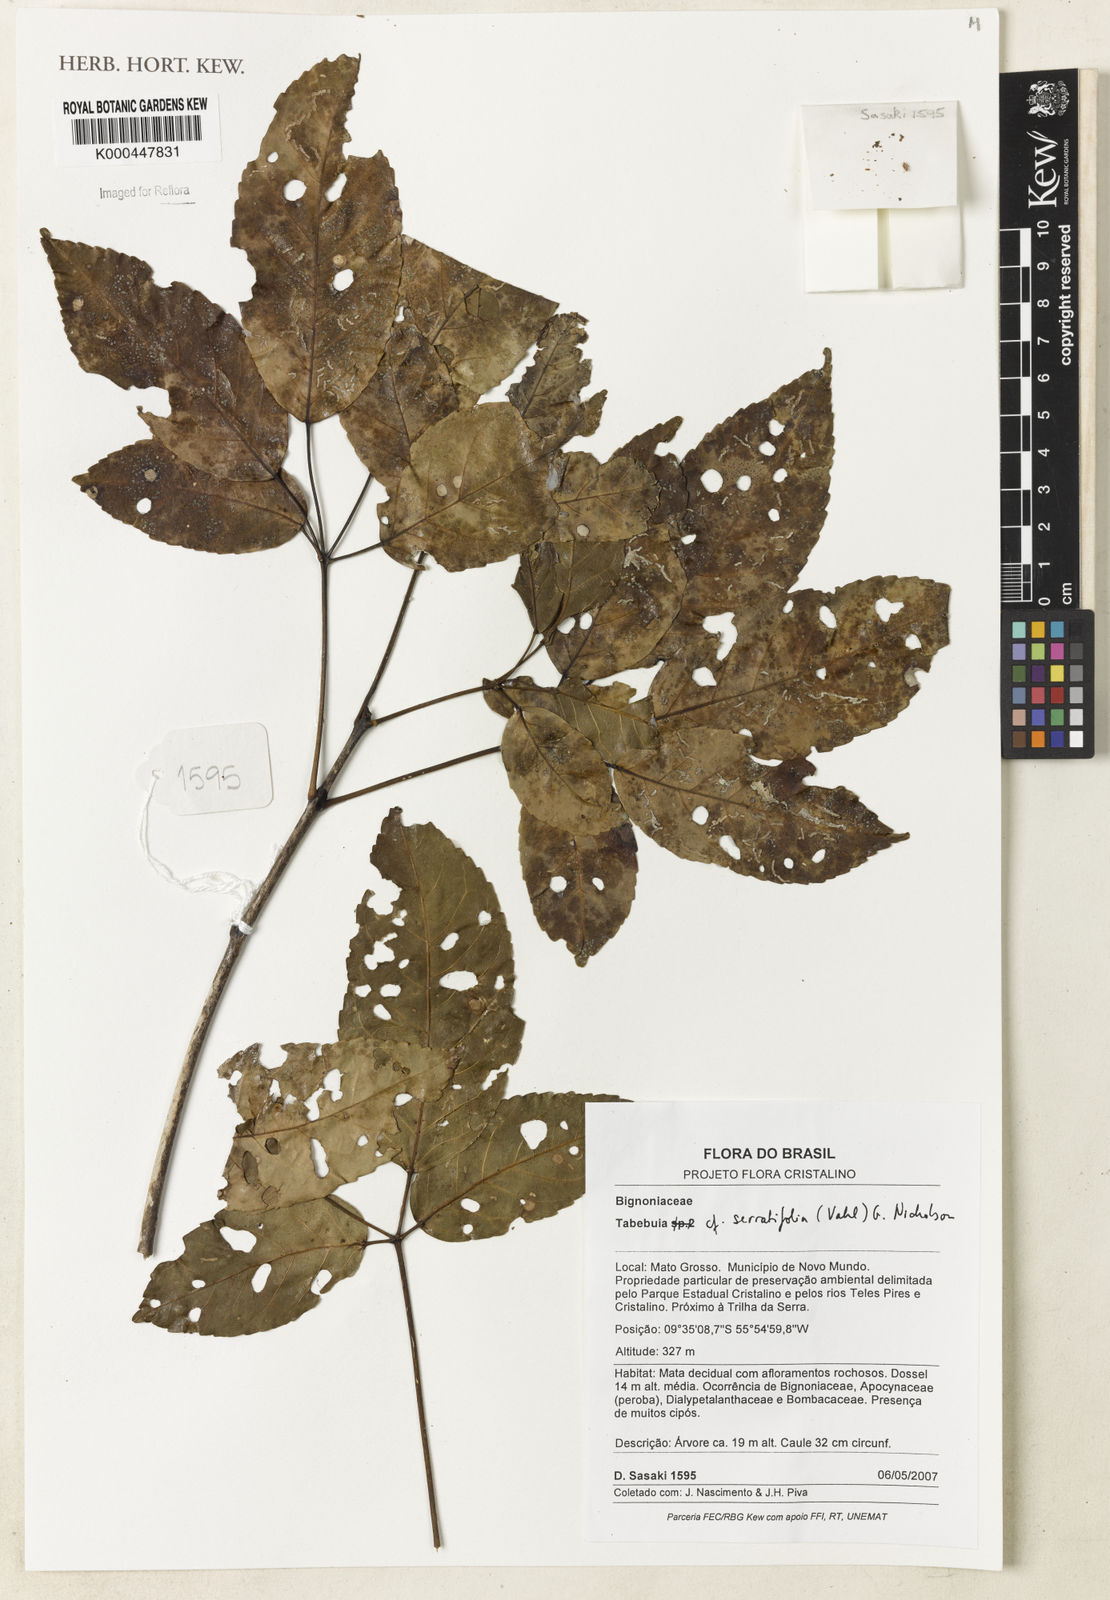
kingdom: Plantae
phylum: Tracheophyta
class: Magnoliopsida
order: Lamiales
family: Bignoniaceae
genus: Handroanthus
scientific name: Handroanthus serratifolius
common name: Yellow ipe
